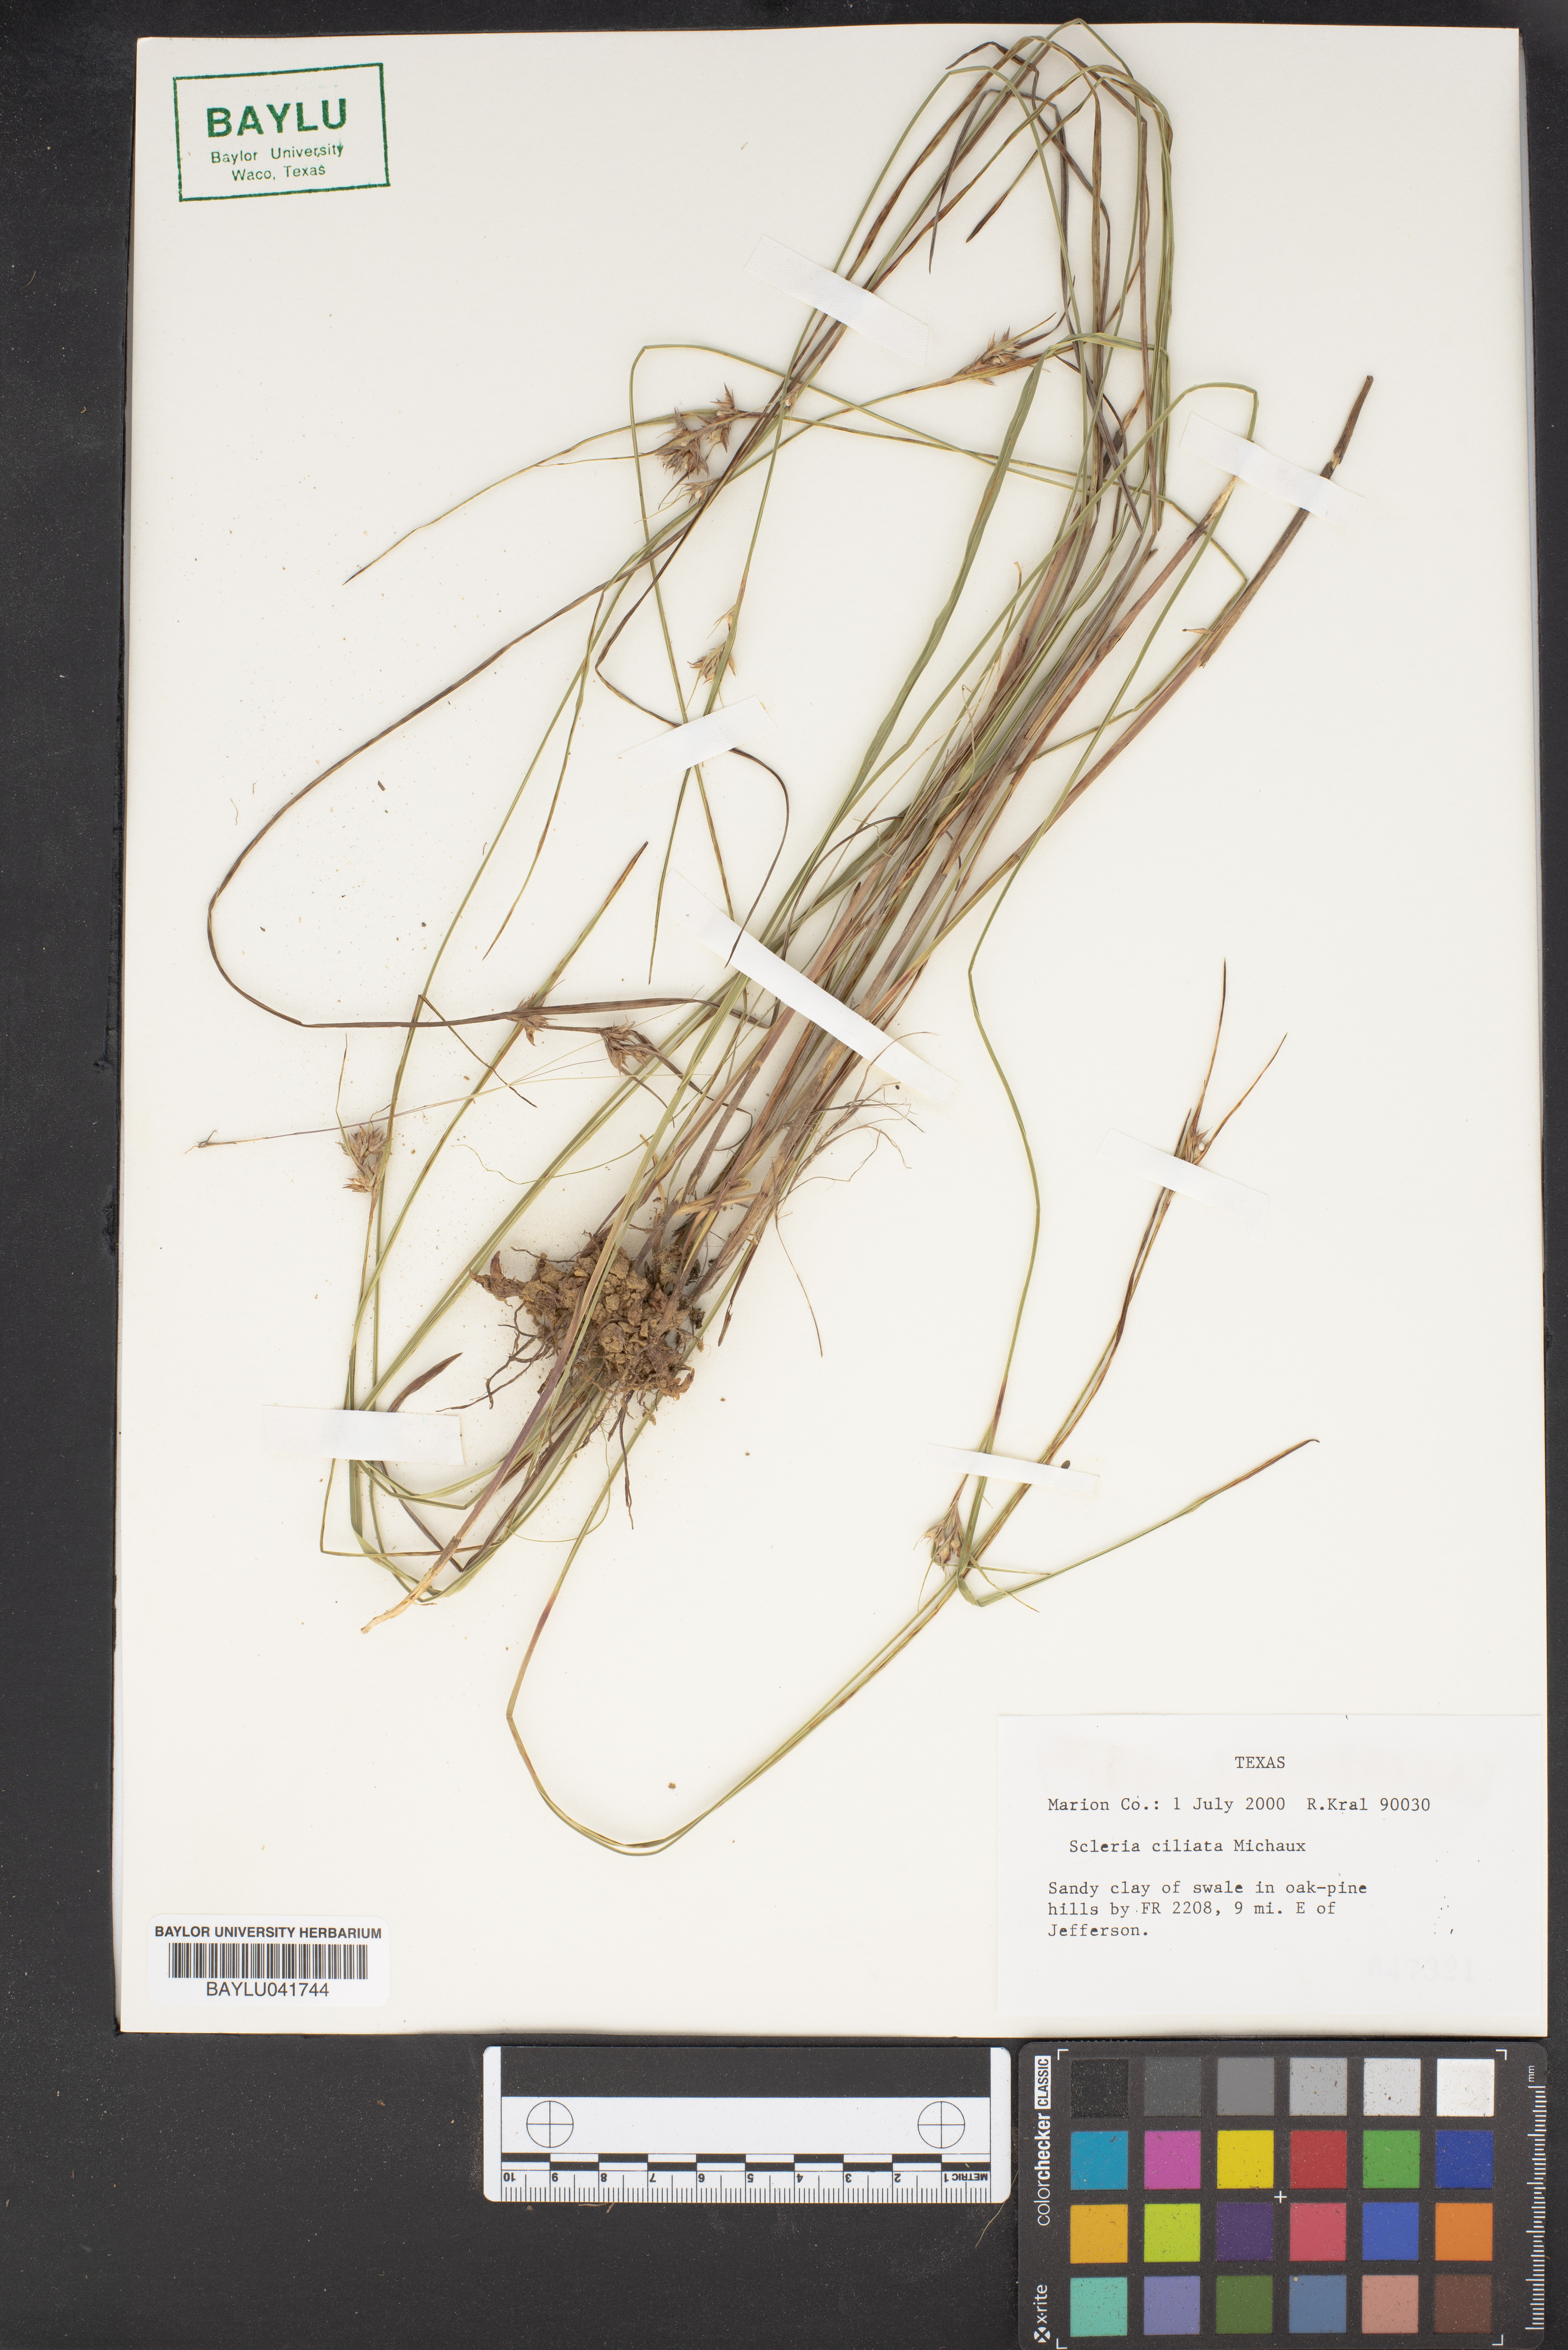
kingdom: Plantae
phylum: Tracheophyta
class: Liliopsida
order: Poales
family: Cyperaceae
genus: Scleria
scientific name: Scleria ciliata
